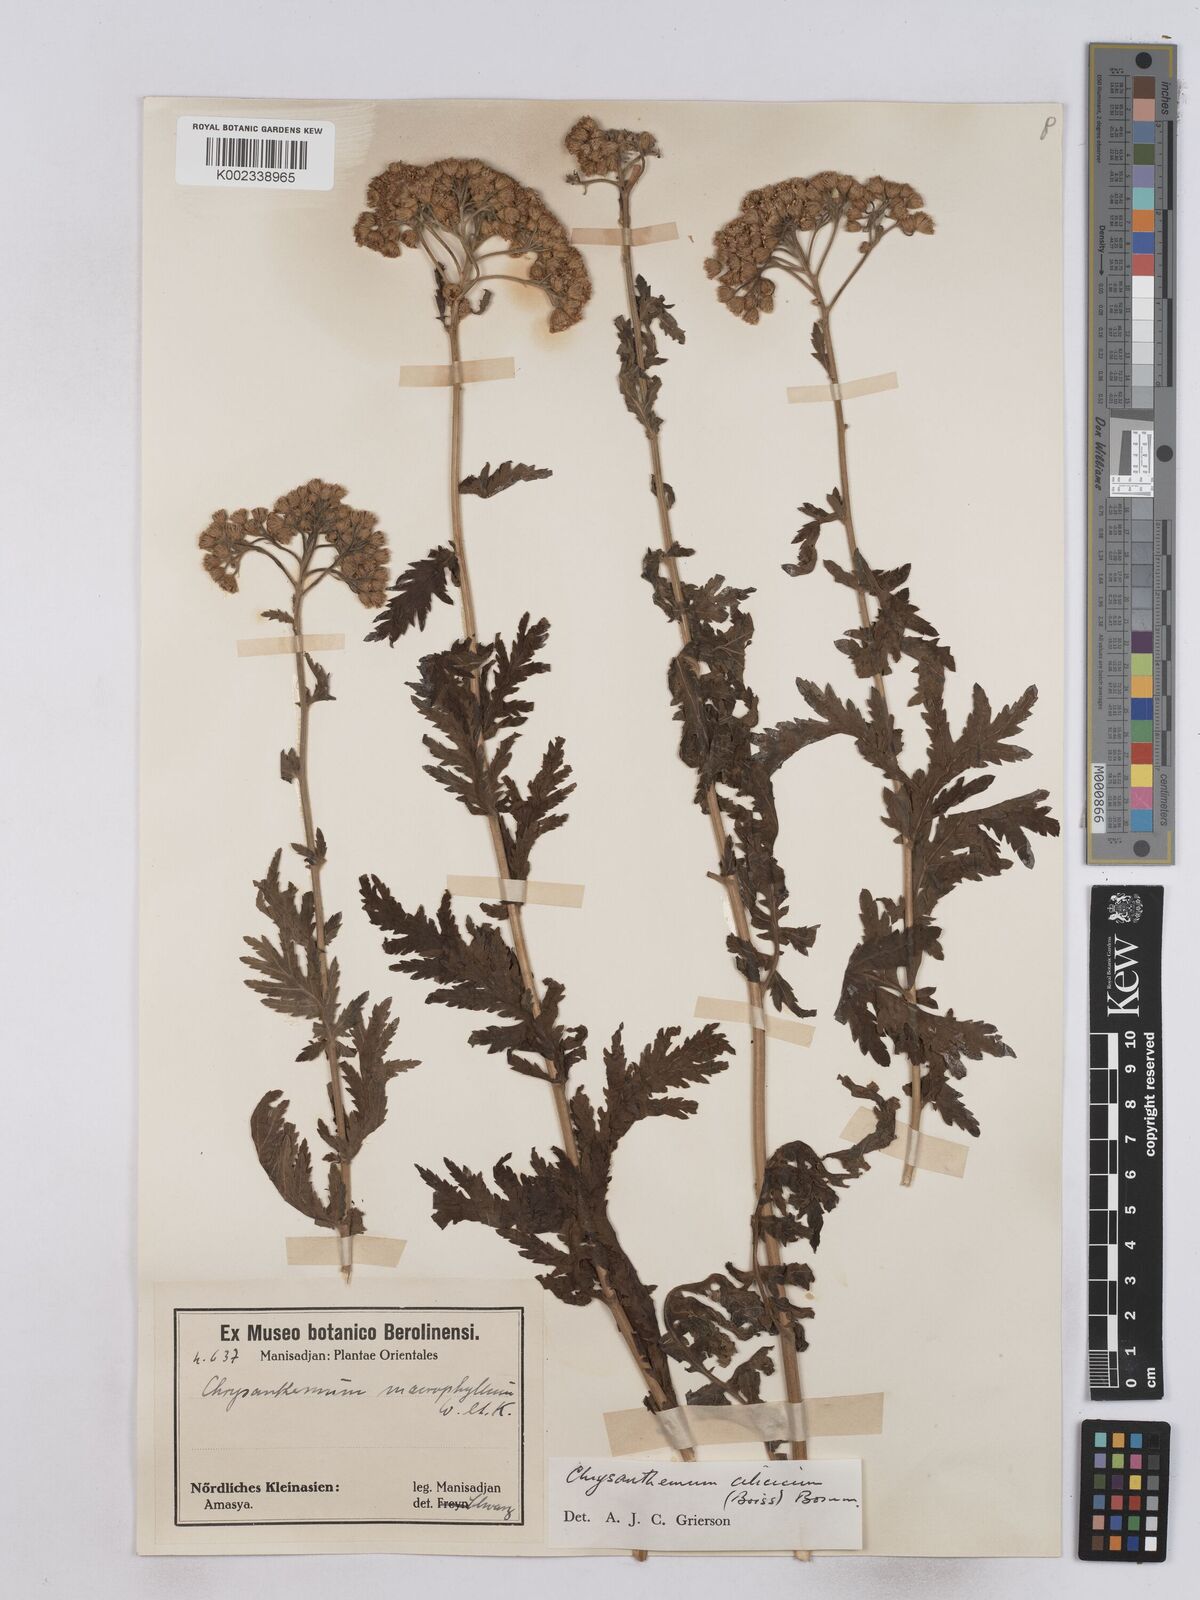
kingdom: Plantae
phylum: Tracheophyta
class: Magnoliopsida
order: Asterales
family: Asteraceae
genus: Tanacetum
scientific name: Tanacetum cilicicum
